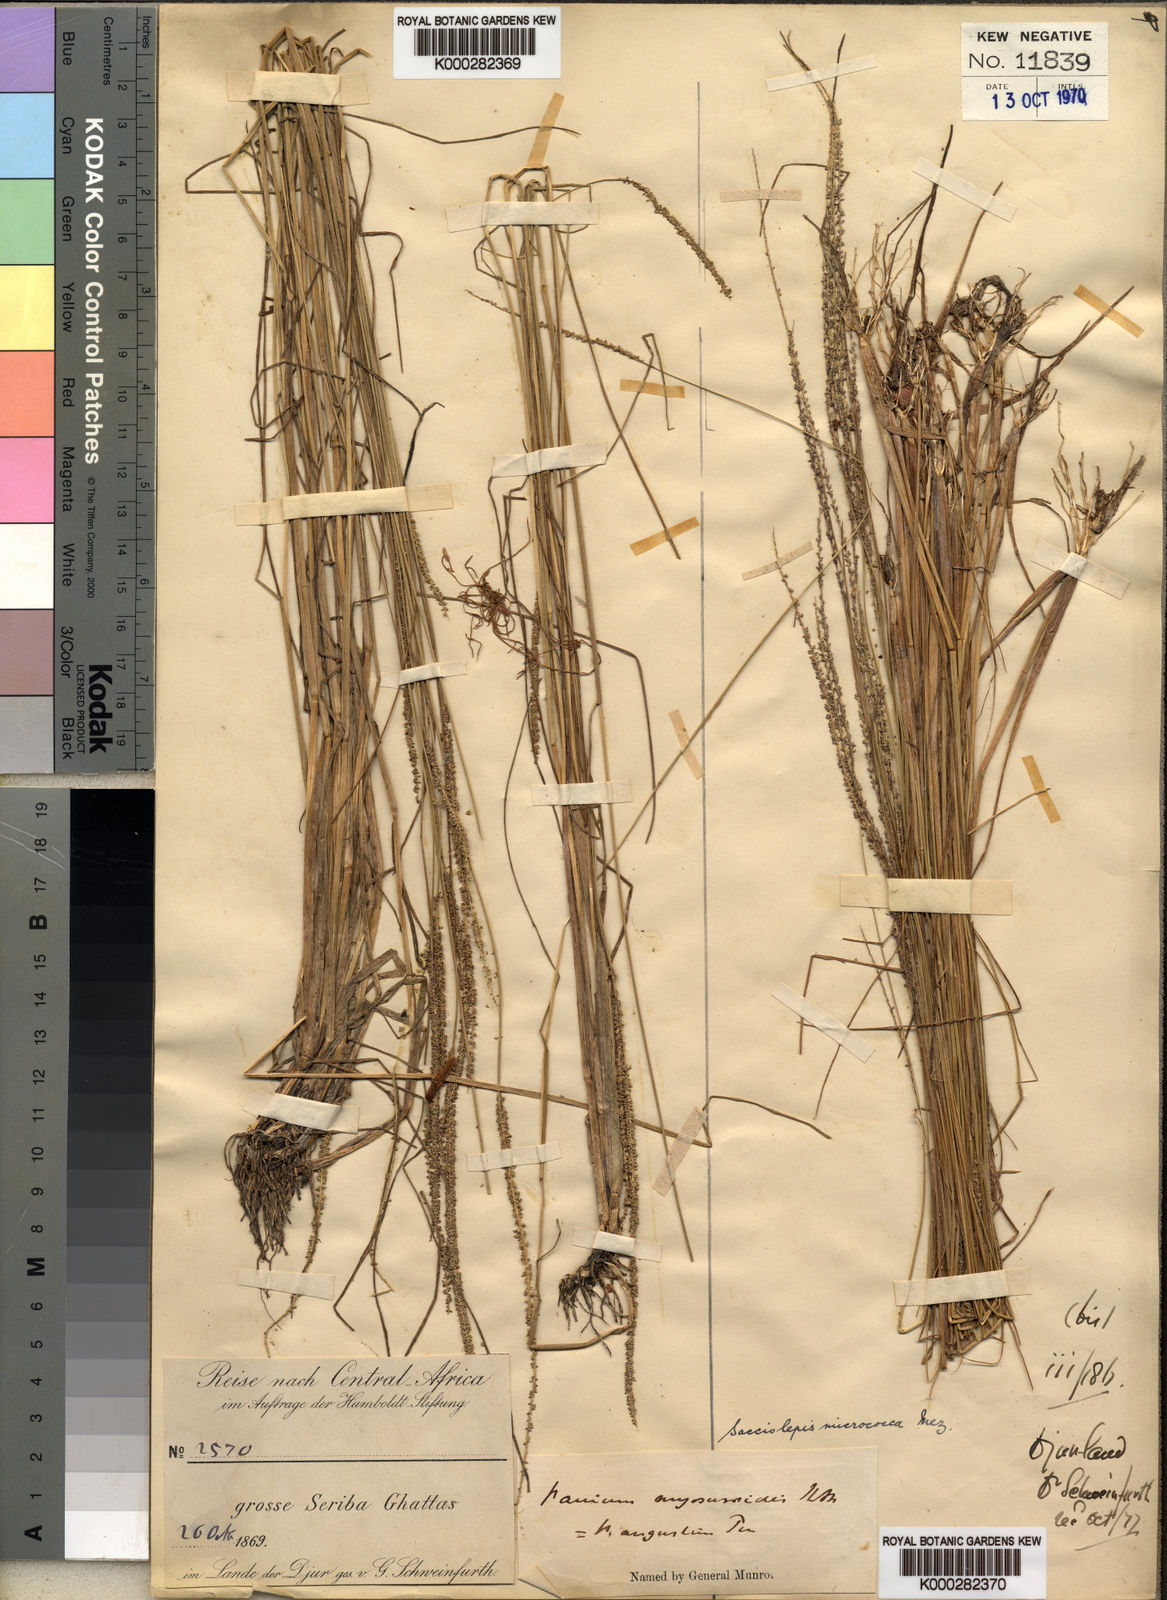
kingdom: Plantae
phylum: Tracheophyta
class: Liliopsida
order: Poales
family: Poaceae
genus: Sacciolepis
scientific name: Sacciolepis micrococca
